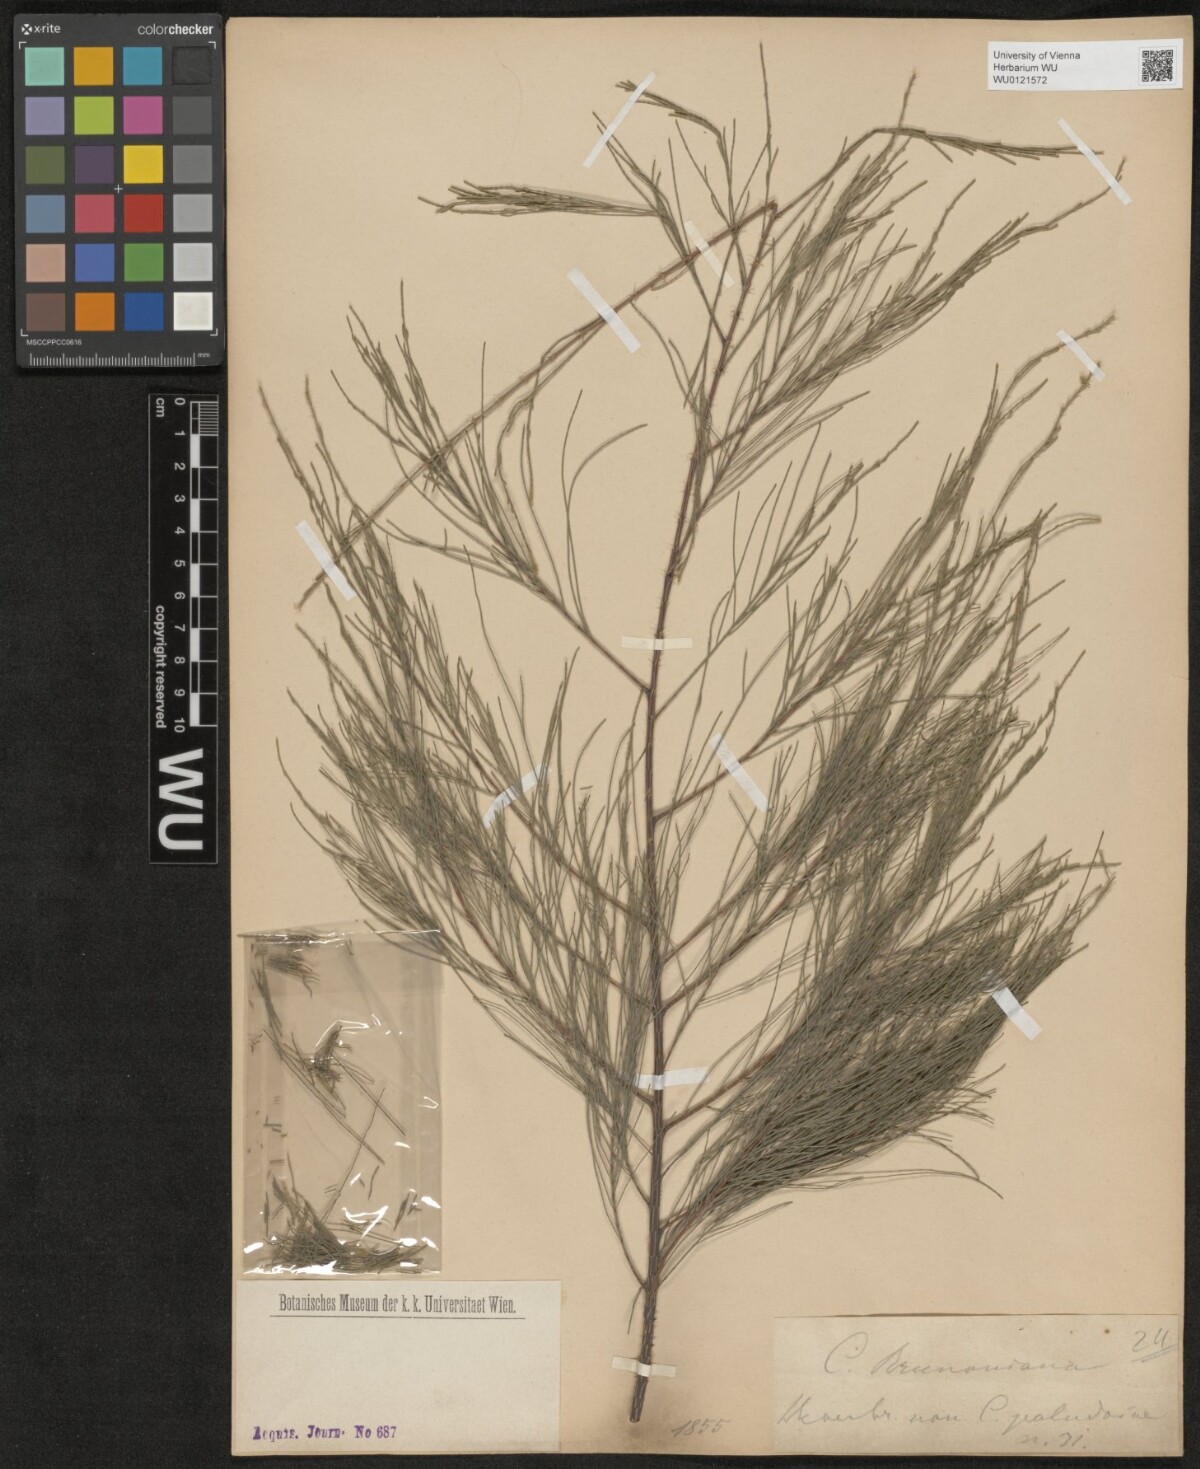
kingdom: Plantae
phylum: Tracheophyta
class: Magnoliopsida
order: Fagales
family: Casuarinaceae
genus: Casuarina
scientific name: Casuarina equisetifolia
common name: Beach sheoak
